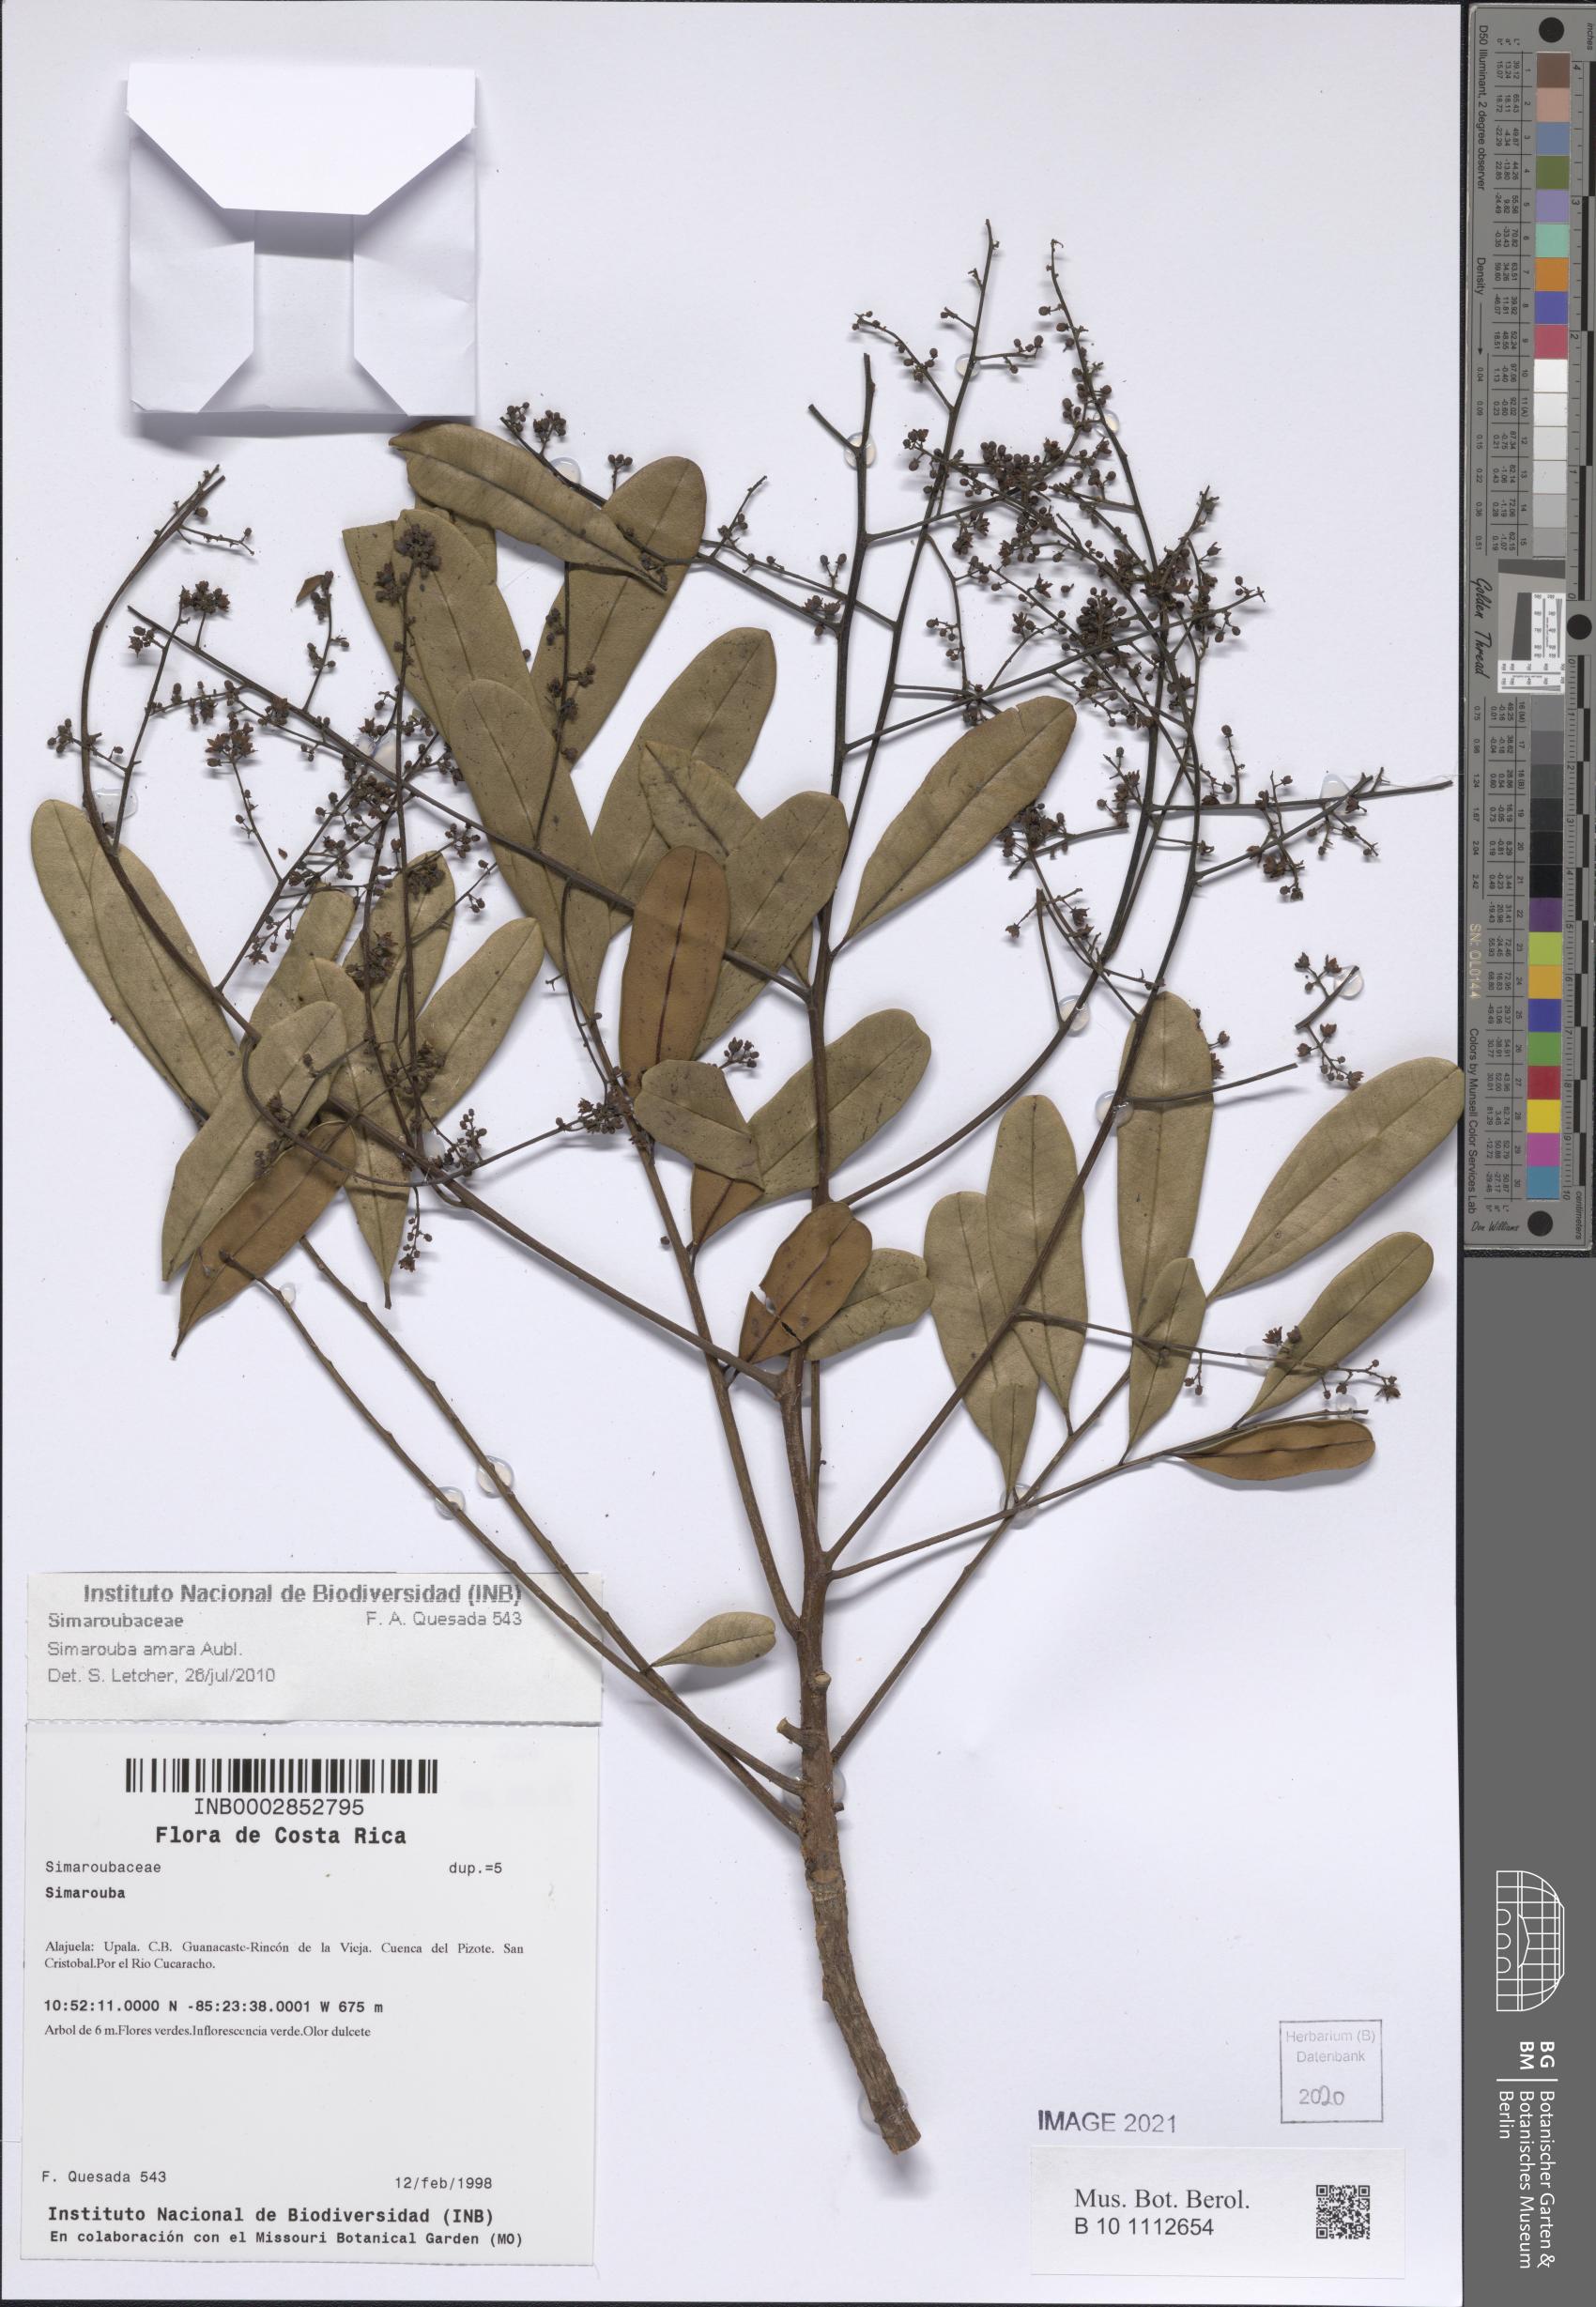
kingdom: Plantae
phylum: Tracheophyta
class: Magnoliopsida
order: Sapindales
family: Simaroubaceae
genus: Simarouba
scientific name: Simarouba amara
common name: Bitterwood
